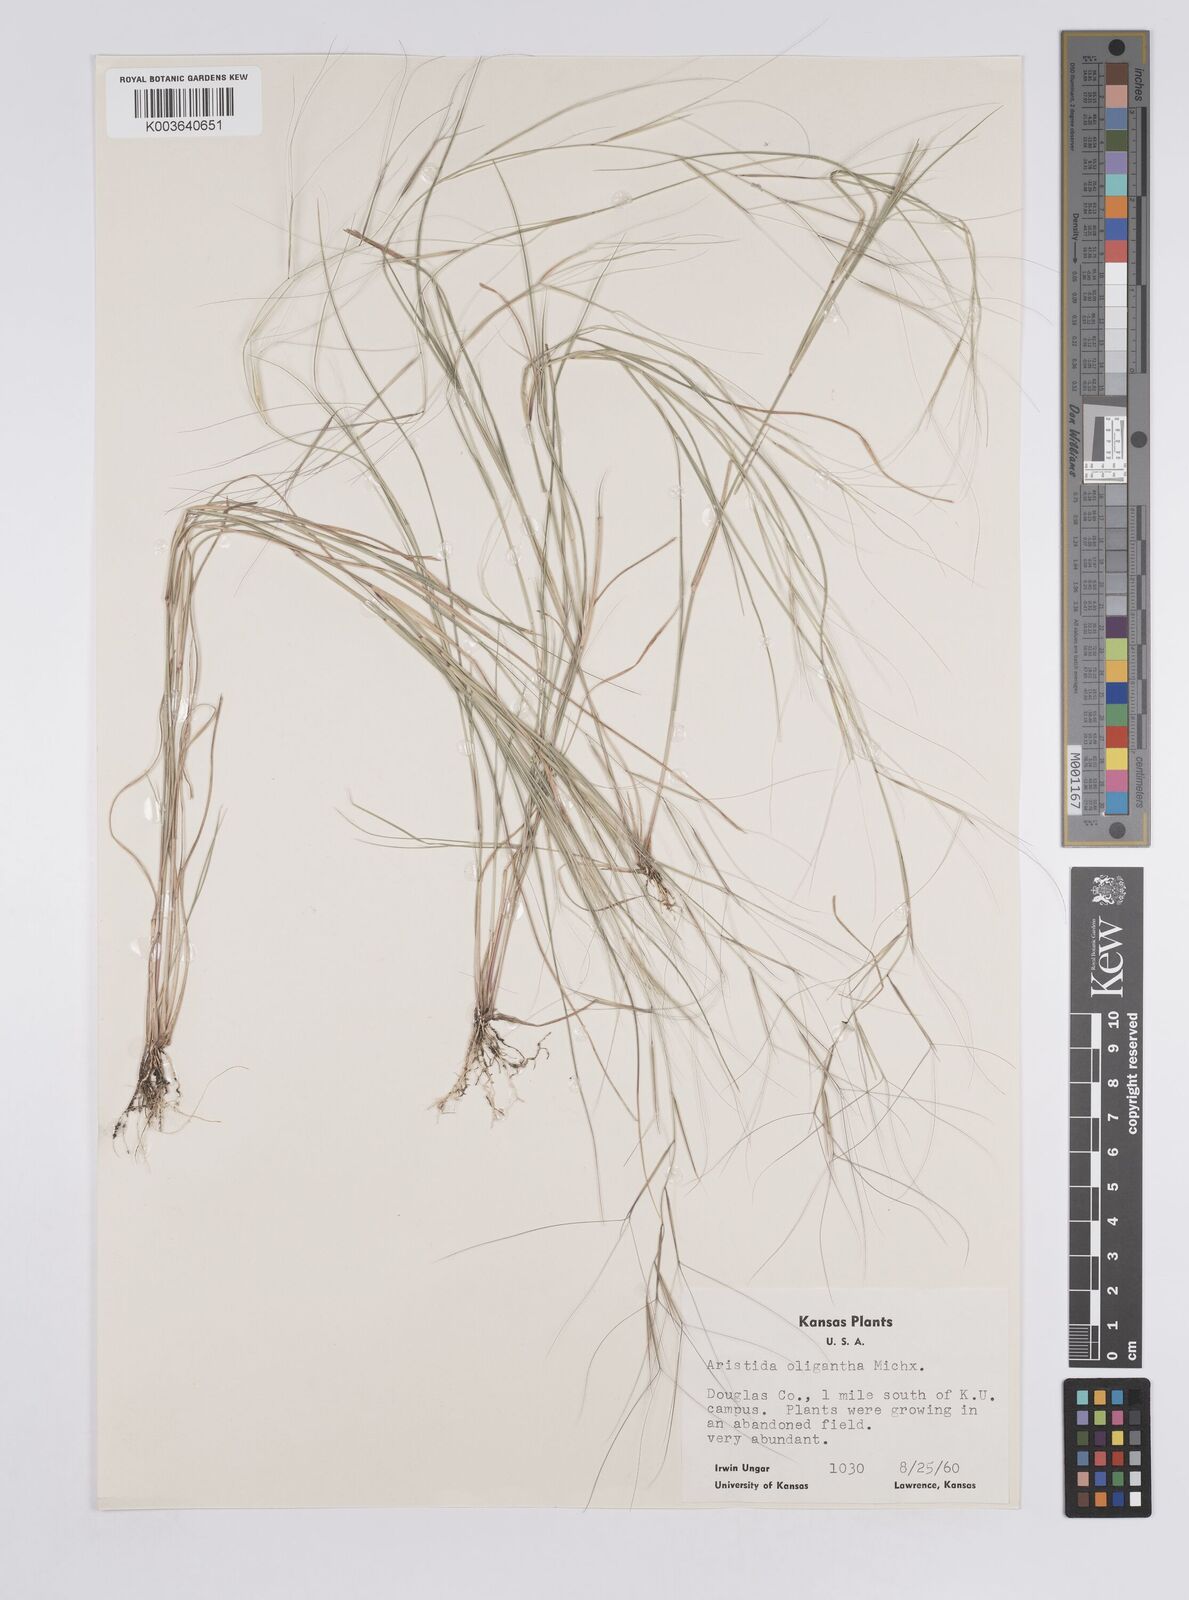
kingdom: Plantae
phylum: Tracheophyta
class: Liliopsida
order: Poales
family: Poaceae
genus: Aristida
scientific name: Aristida oligantha
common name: Few-flowered aristida
